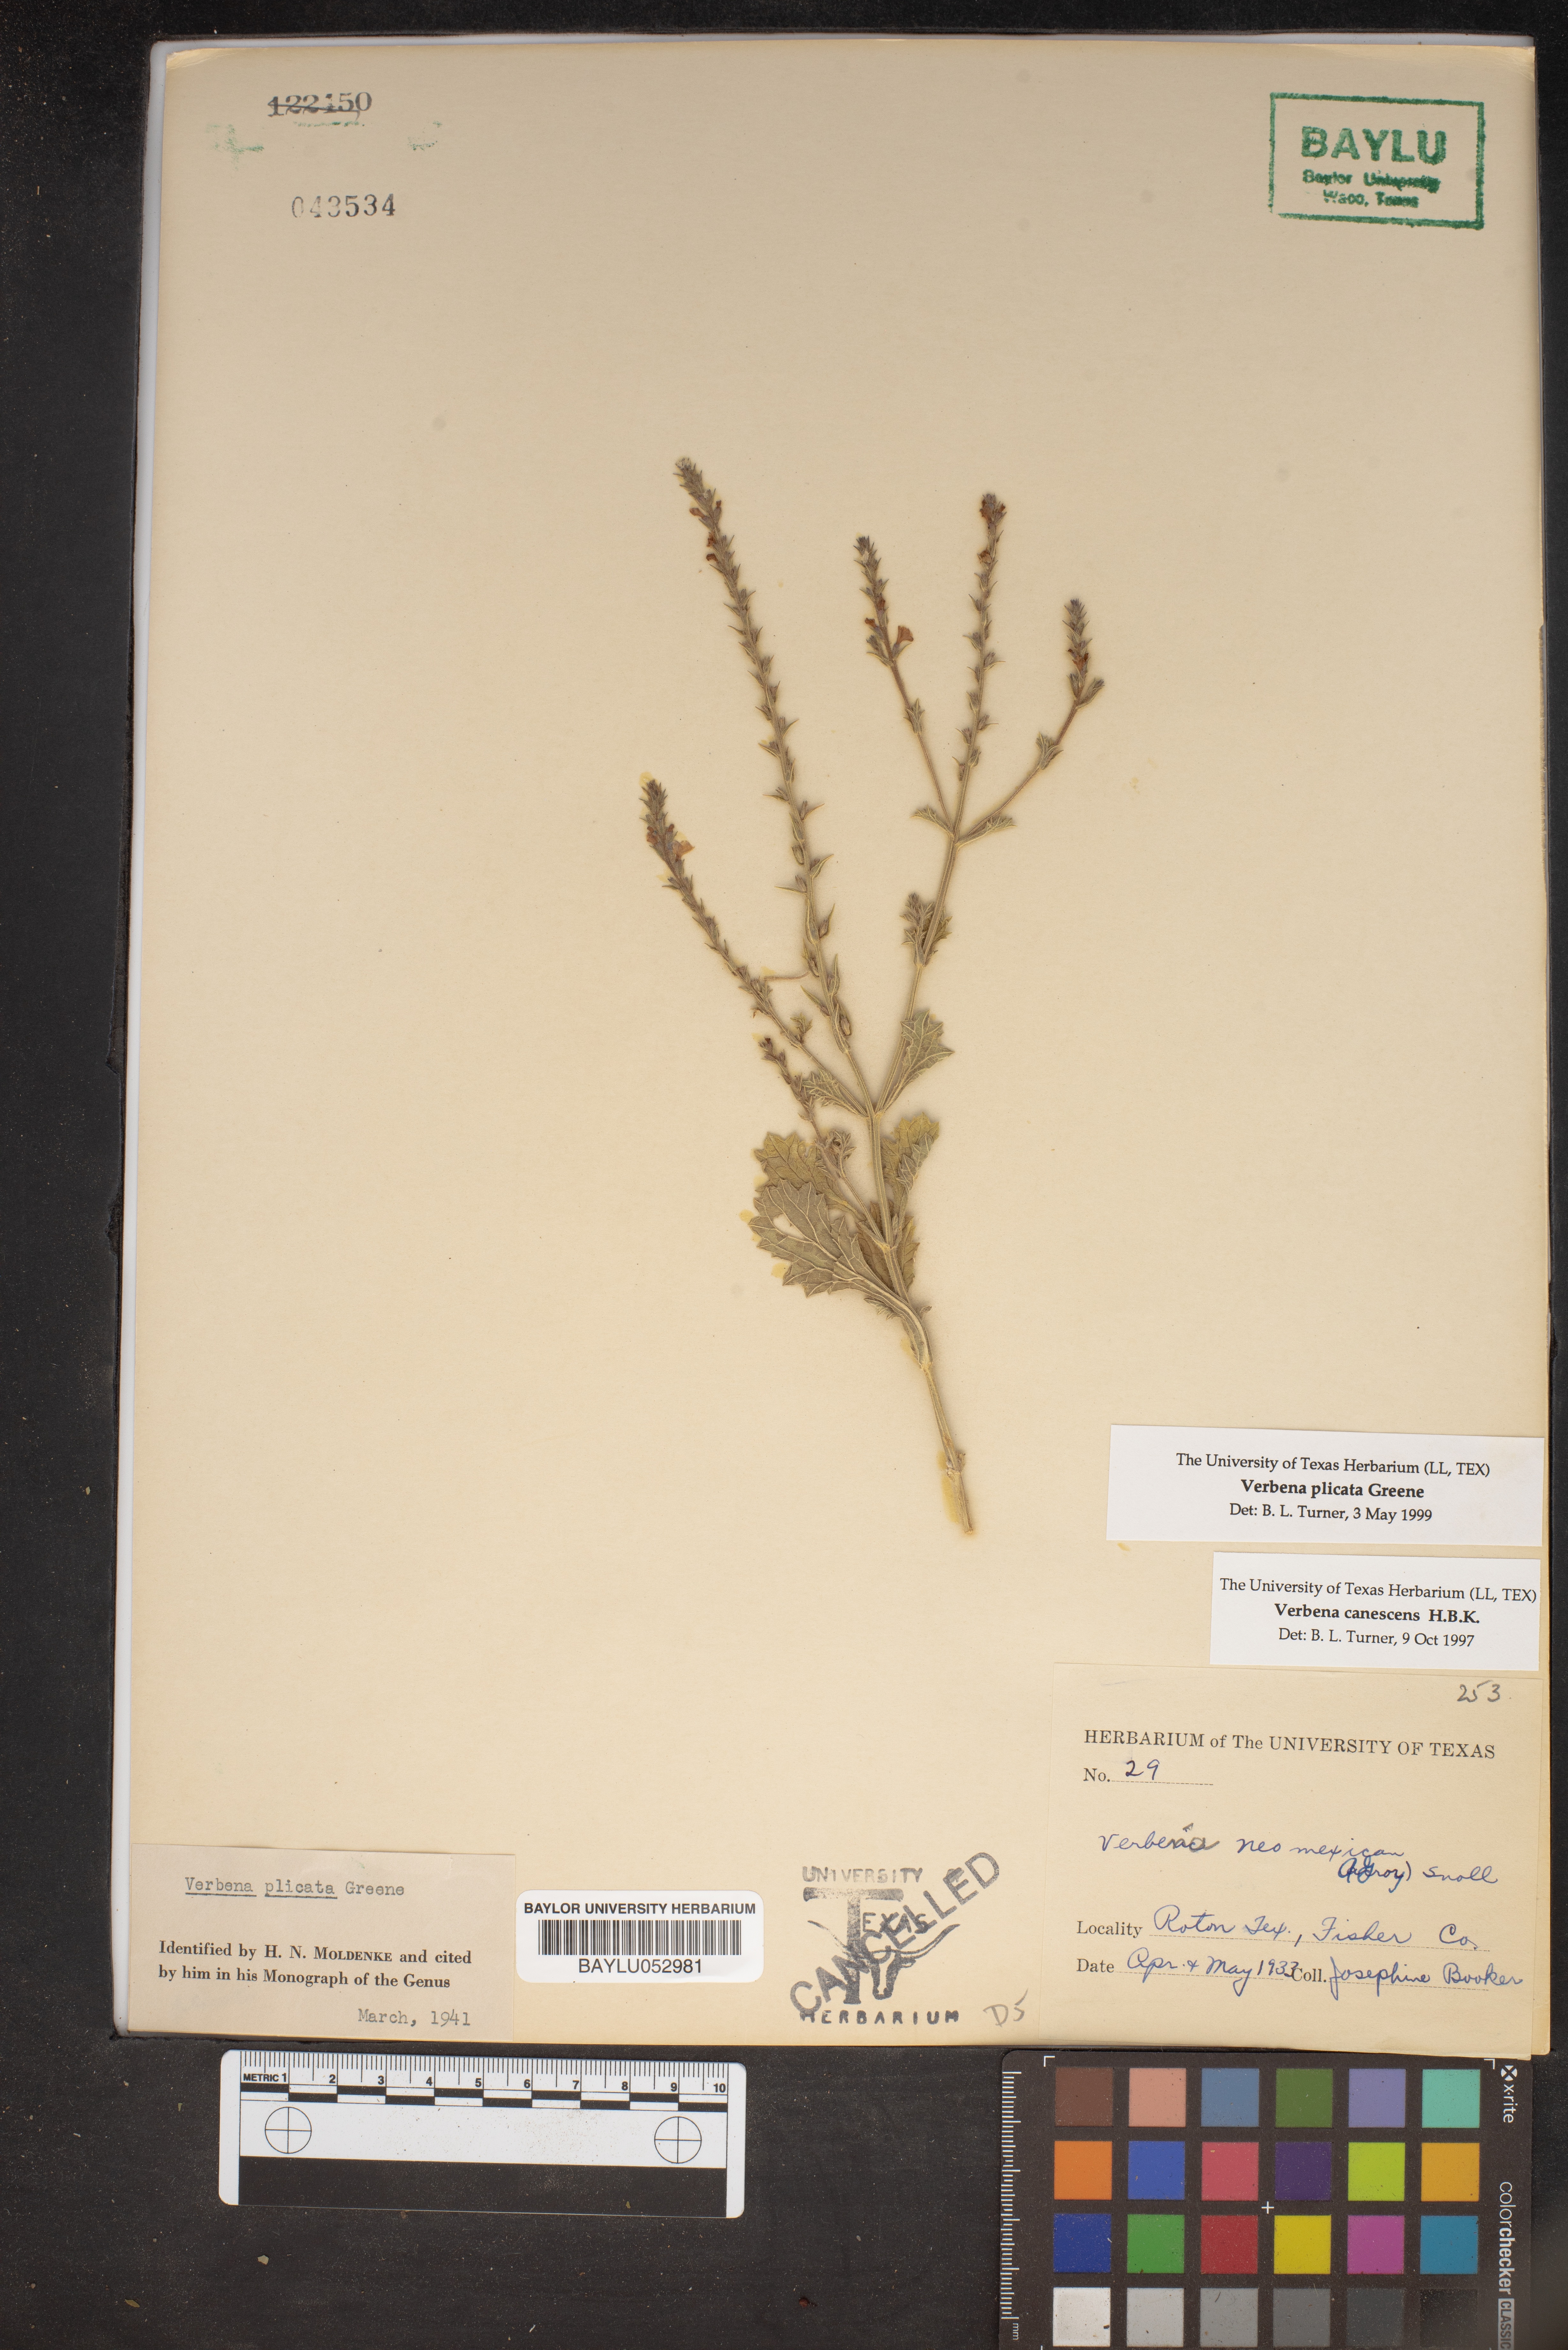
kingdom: Plantae
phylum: Tracheophyta
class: Magnoliopsida
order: Lamiales
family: Verbenaceae
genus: Verbena
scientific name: Verbena canescens
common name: Gray vervain
